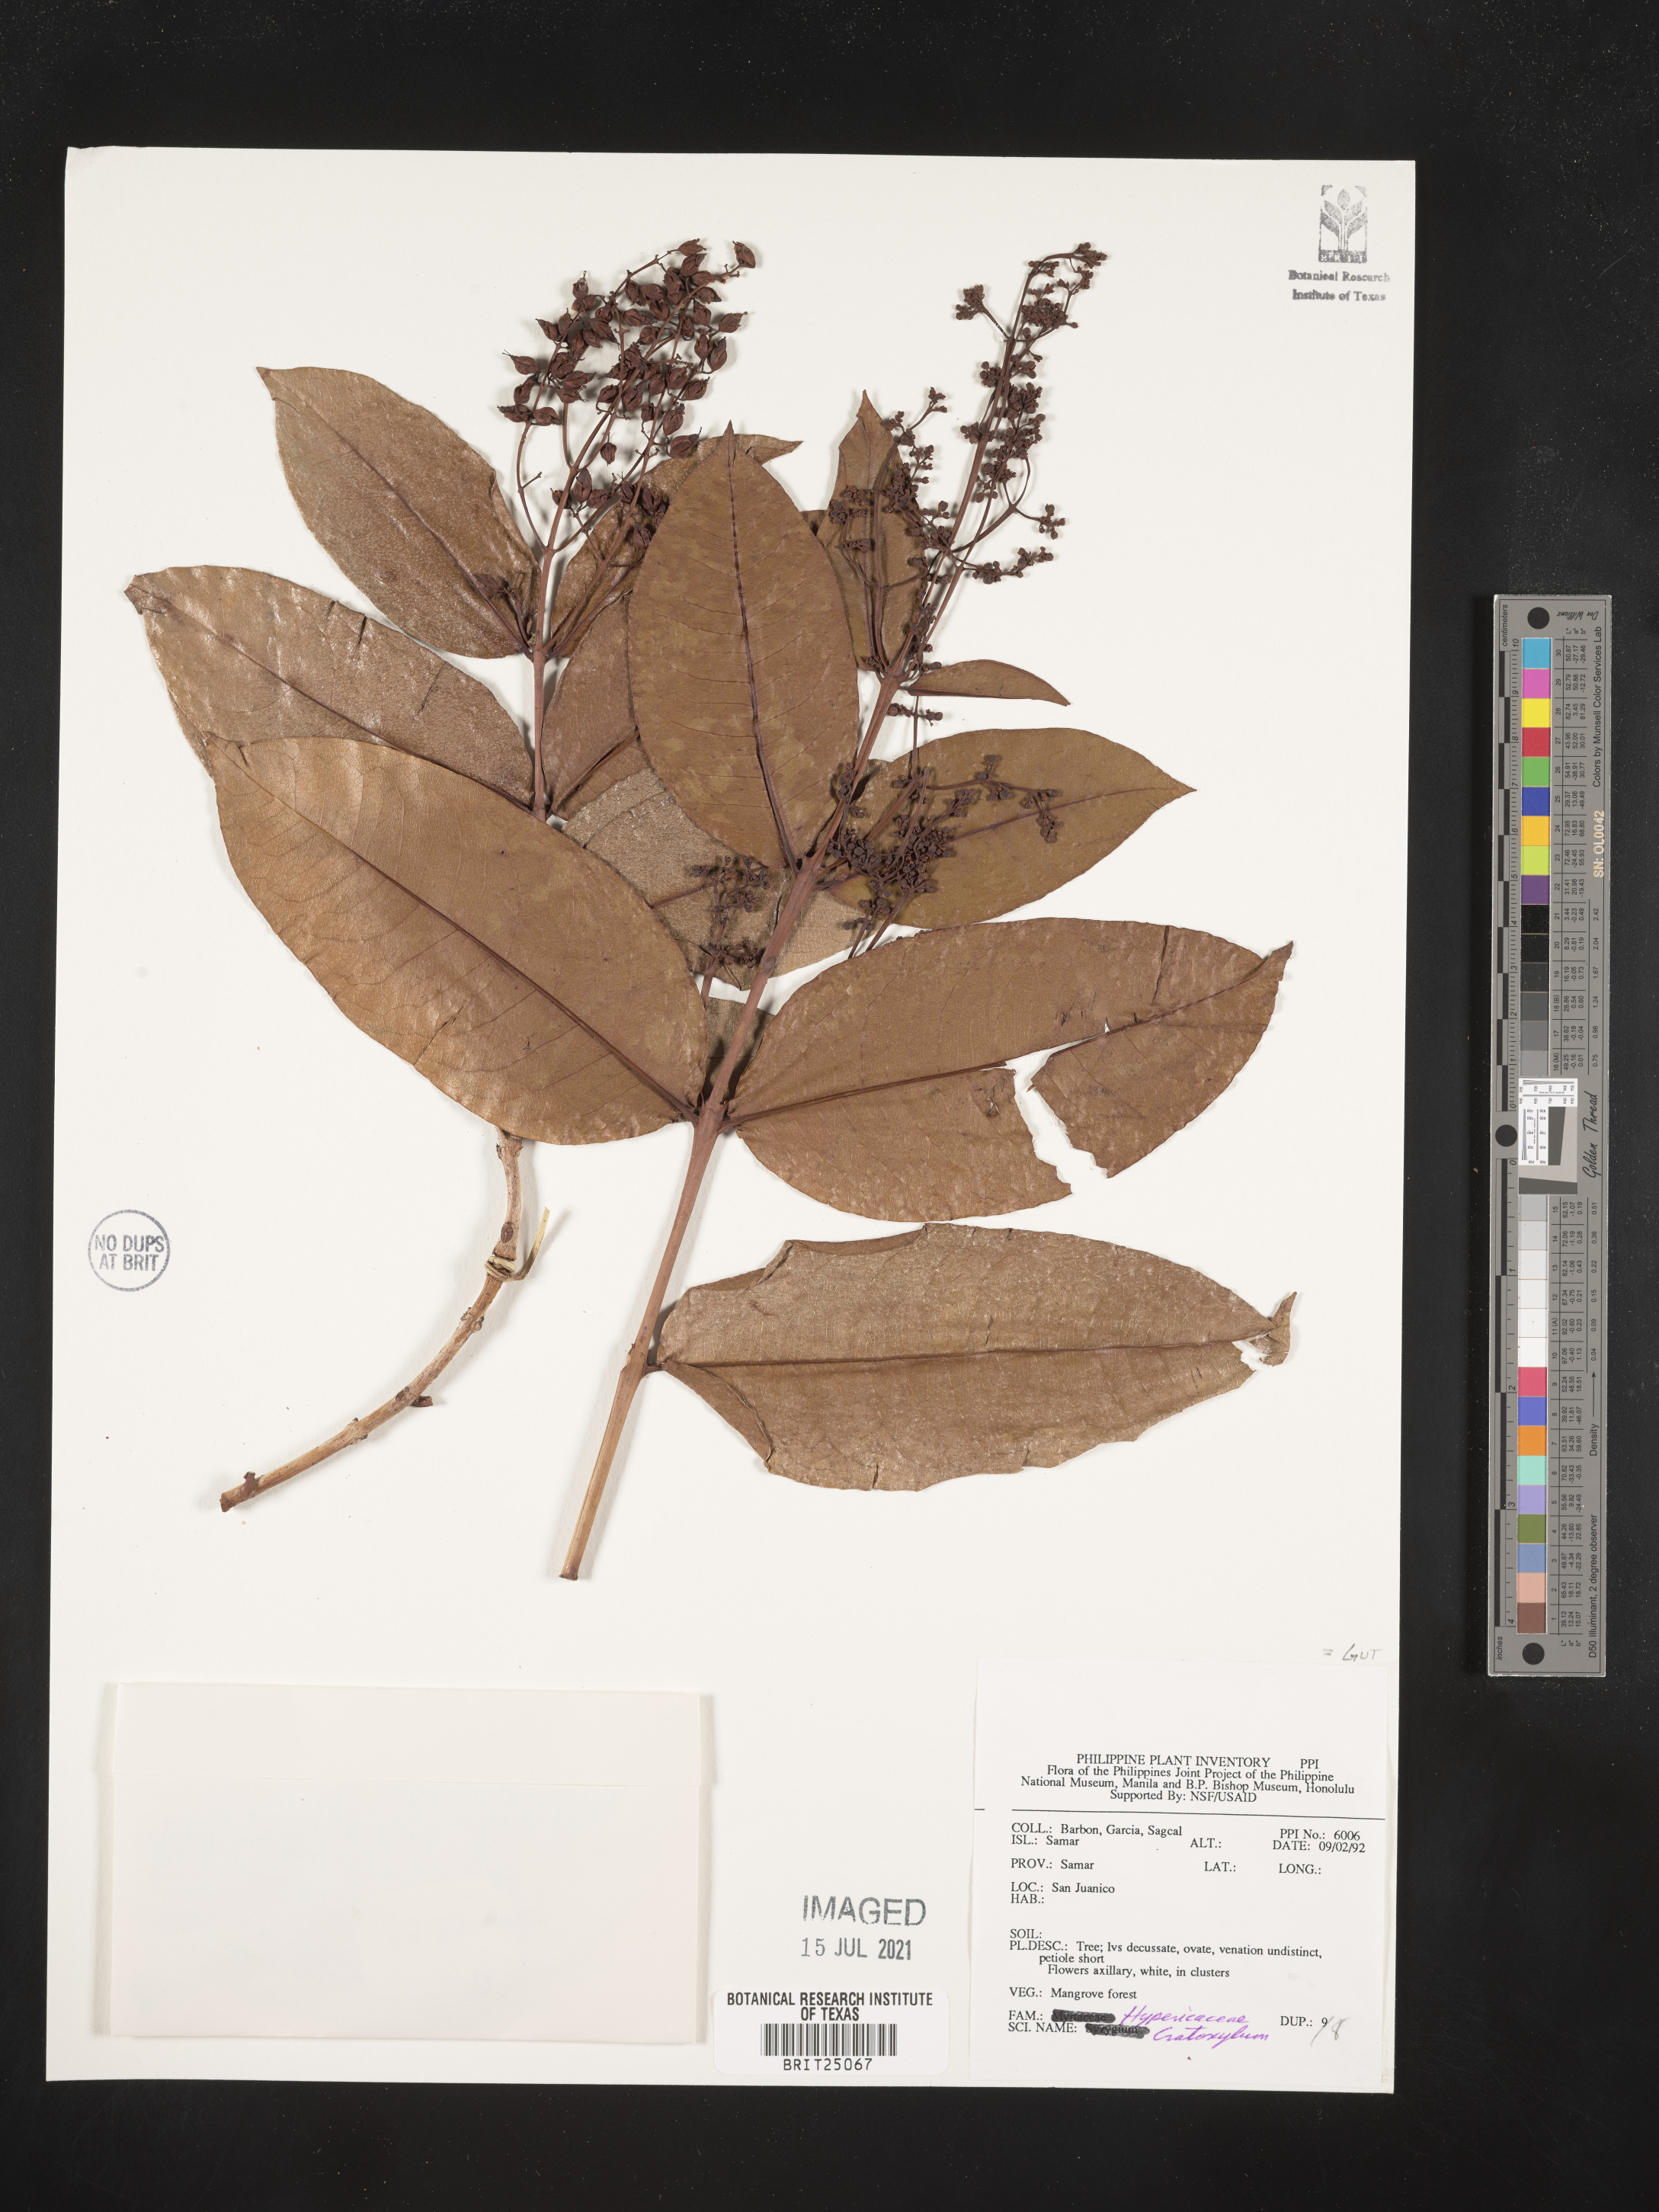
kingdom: Plantae
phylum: Tracheophyta
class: Magnoliopsida
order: Malpighiales
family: Hypericaceae
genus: Cratoxylum
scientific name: Cratoxylum
